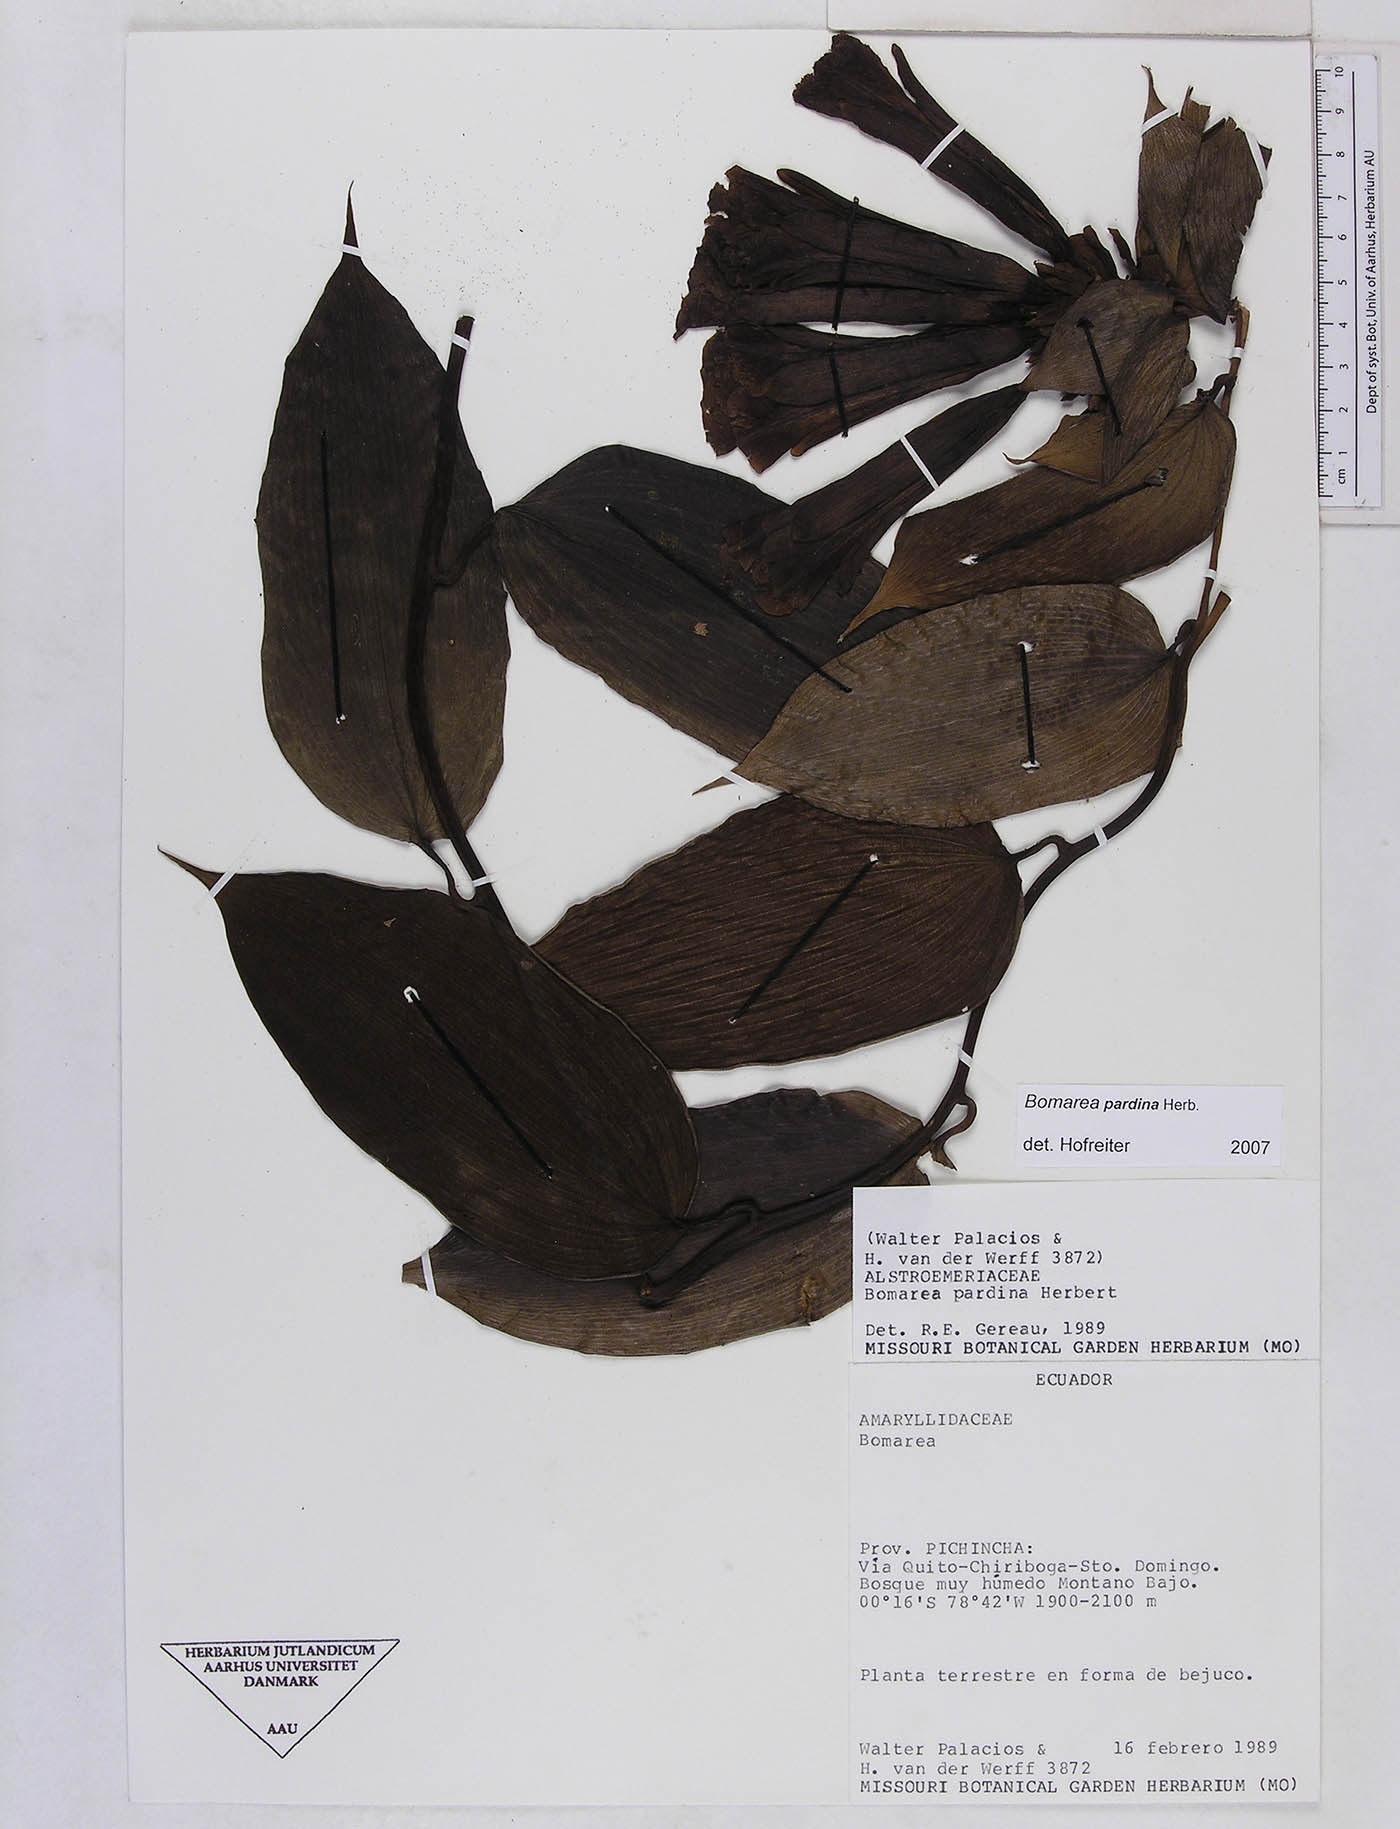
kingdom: Plantae
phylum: Tracheophyta
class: Liliopsida
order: Liliales
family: Alstroemeriaceae
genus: Bomarea
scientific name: Bomarea pardina
